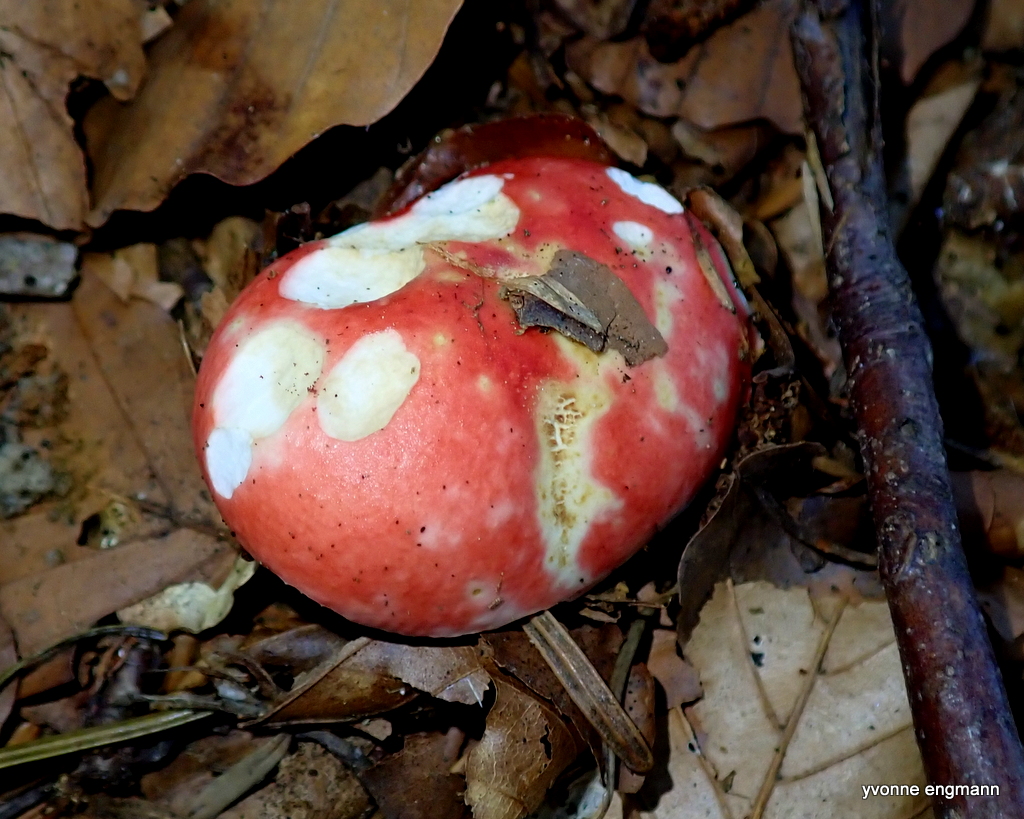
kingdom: Fungi
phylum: Basidiomycota
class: Agaricomycetes
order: Russulales
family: Russulaceae
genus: Russula
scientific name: Russula nobilis
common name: lille gift-skørhat
